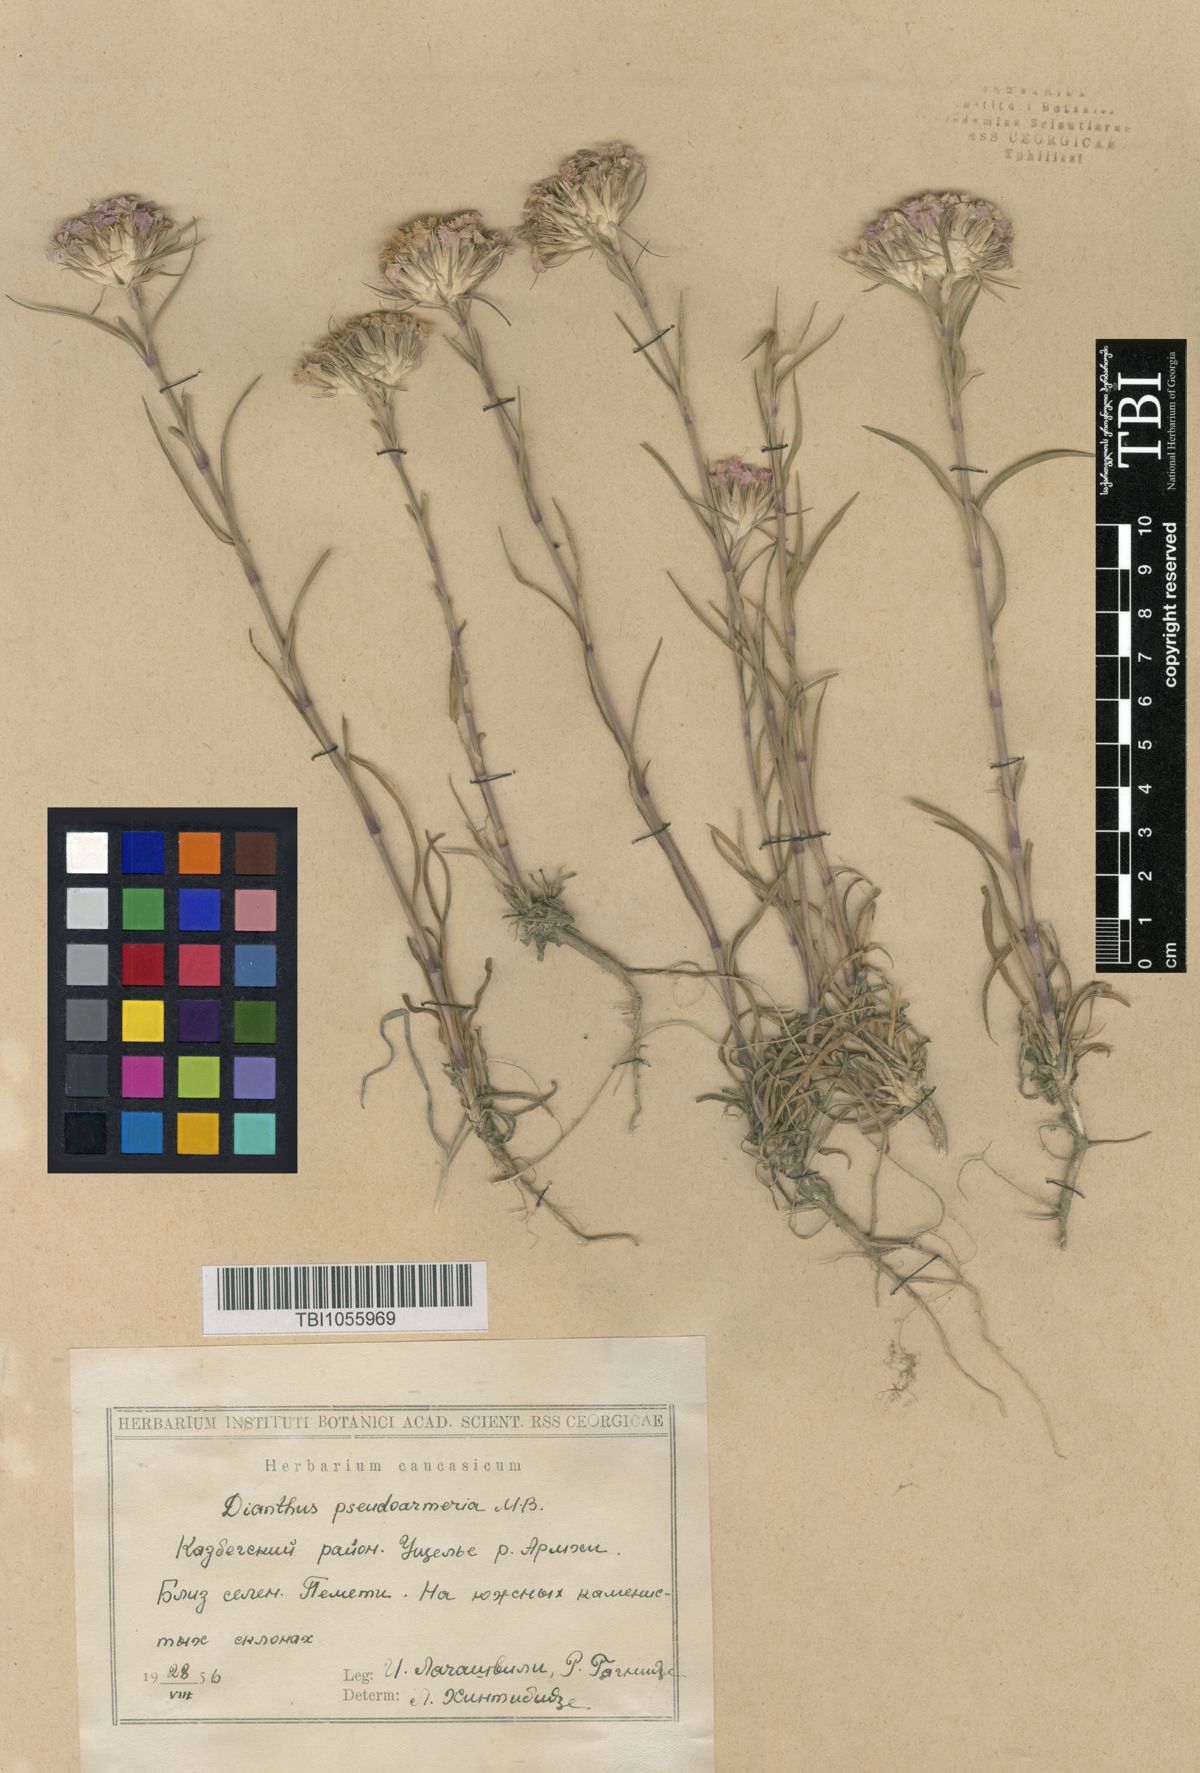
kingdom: Plantae
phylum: Tracheophyta
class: Magnoliopsida
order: Caryophyllales
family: Caryophyllaceae
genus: Dianthus
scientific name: Dianthus pseudarmeria
